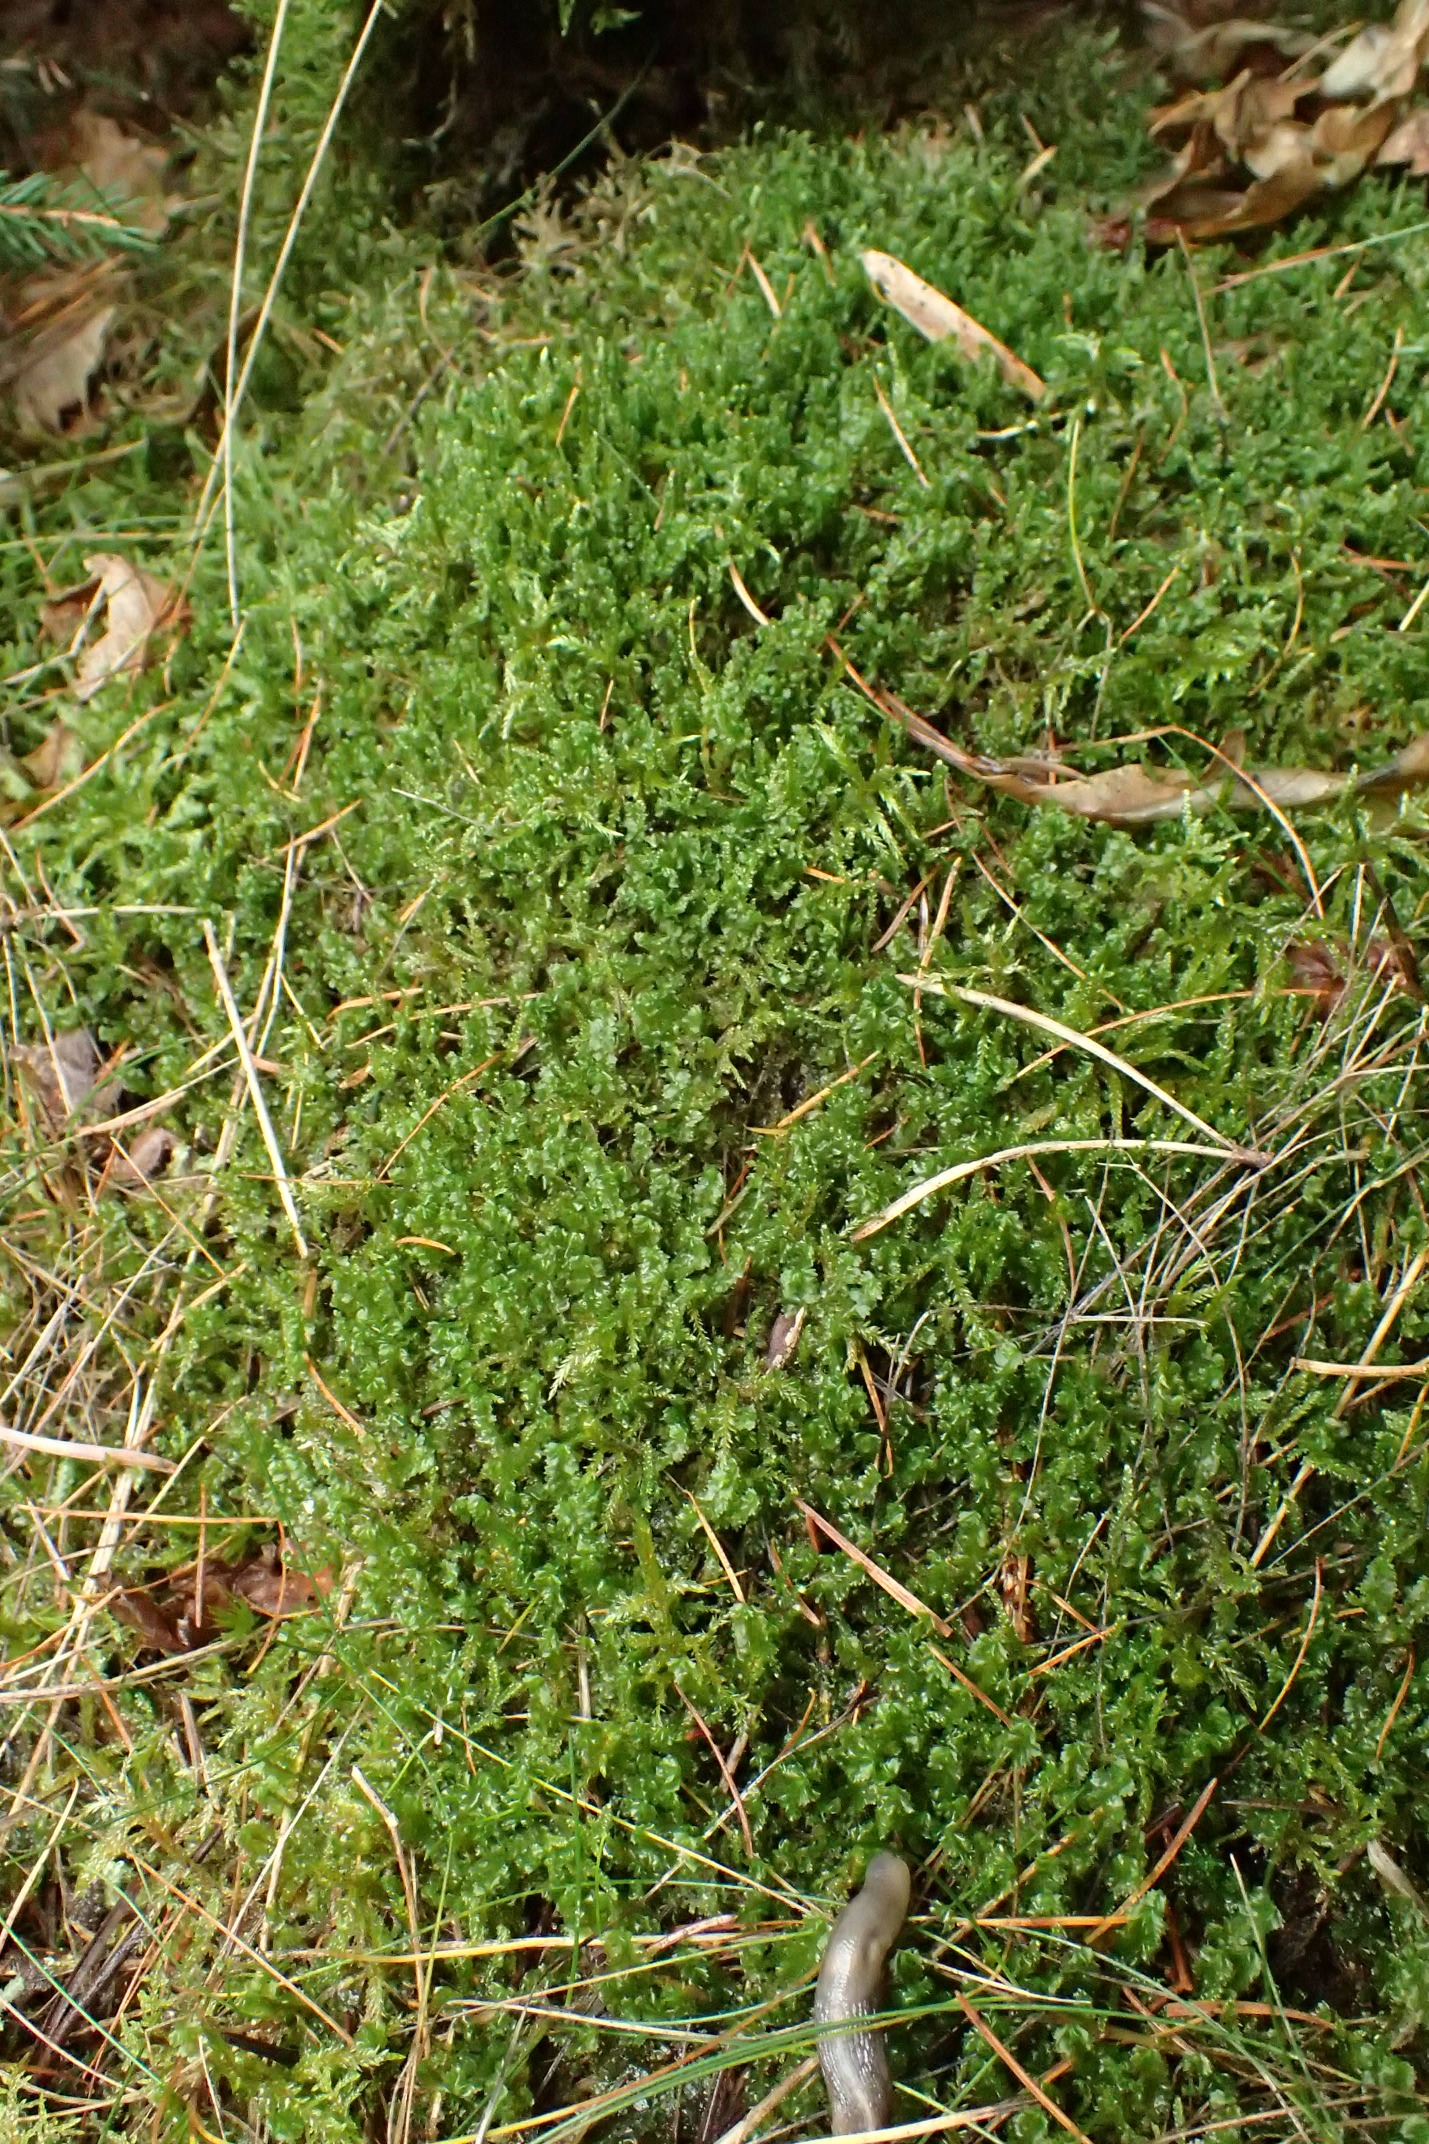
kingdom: Plantae
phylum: Marchantiophyta
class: Jungermanniopsida
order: Jungermanniales
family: Anastrophyllaceae
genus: Barbilophozia
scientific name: Barbilophozia barbata
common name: Skægget flerfligmos
